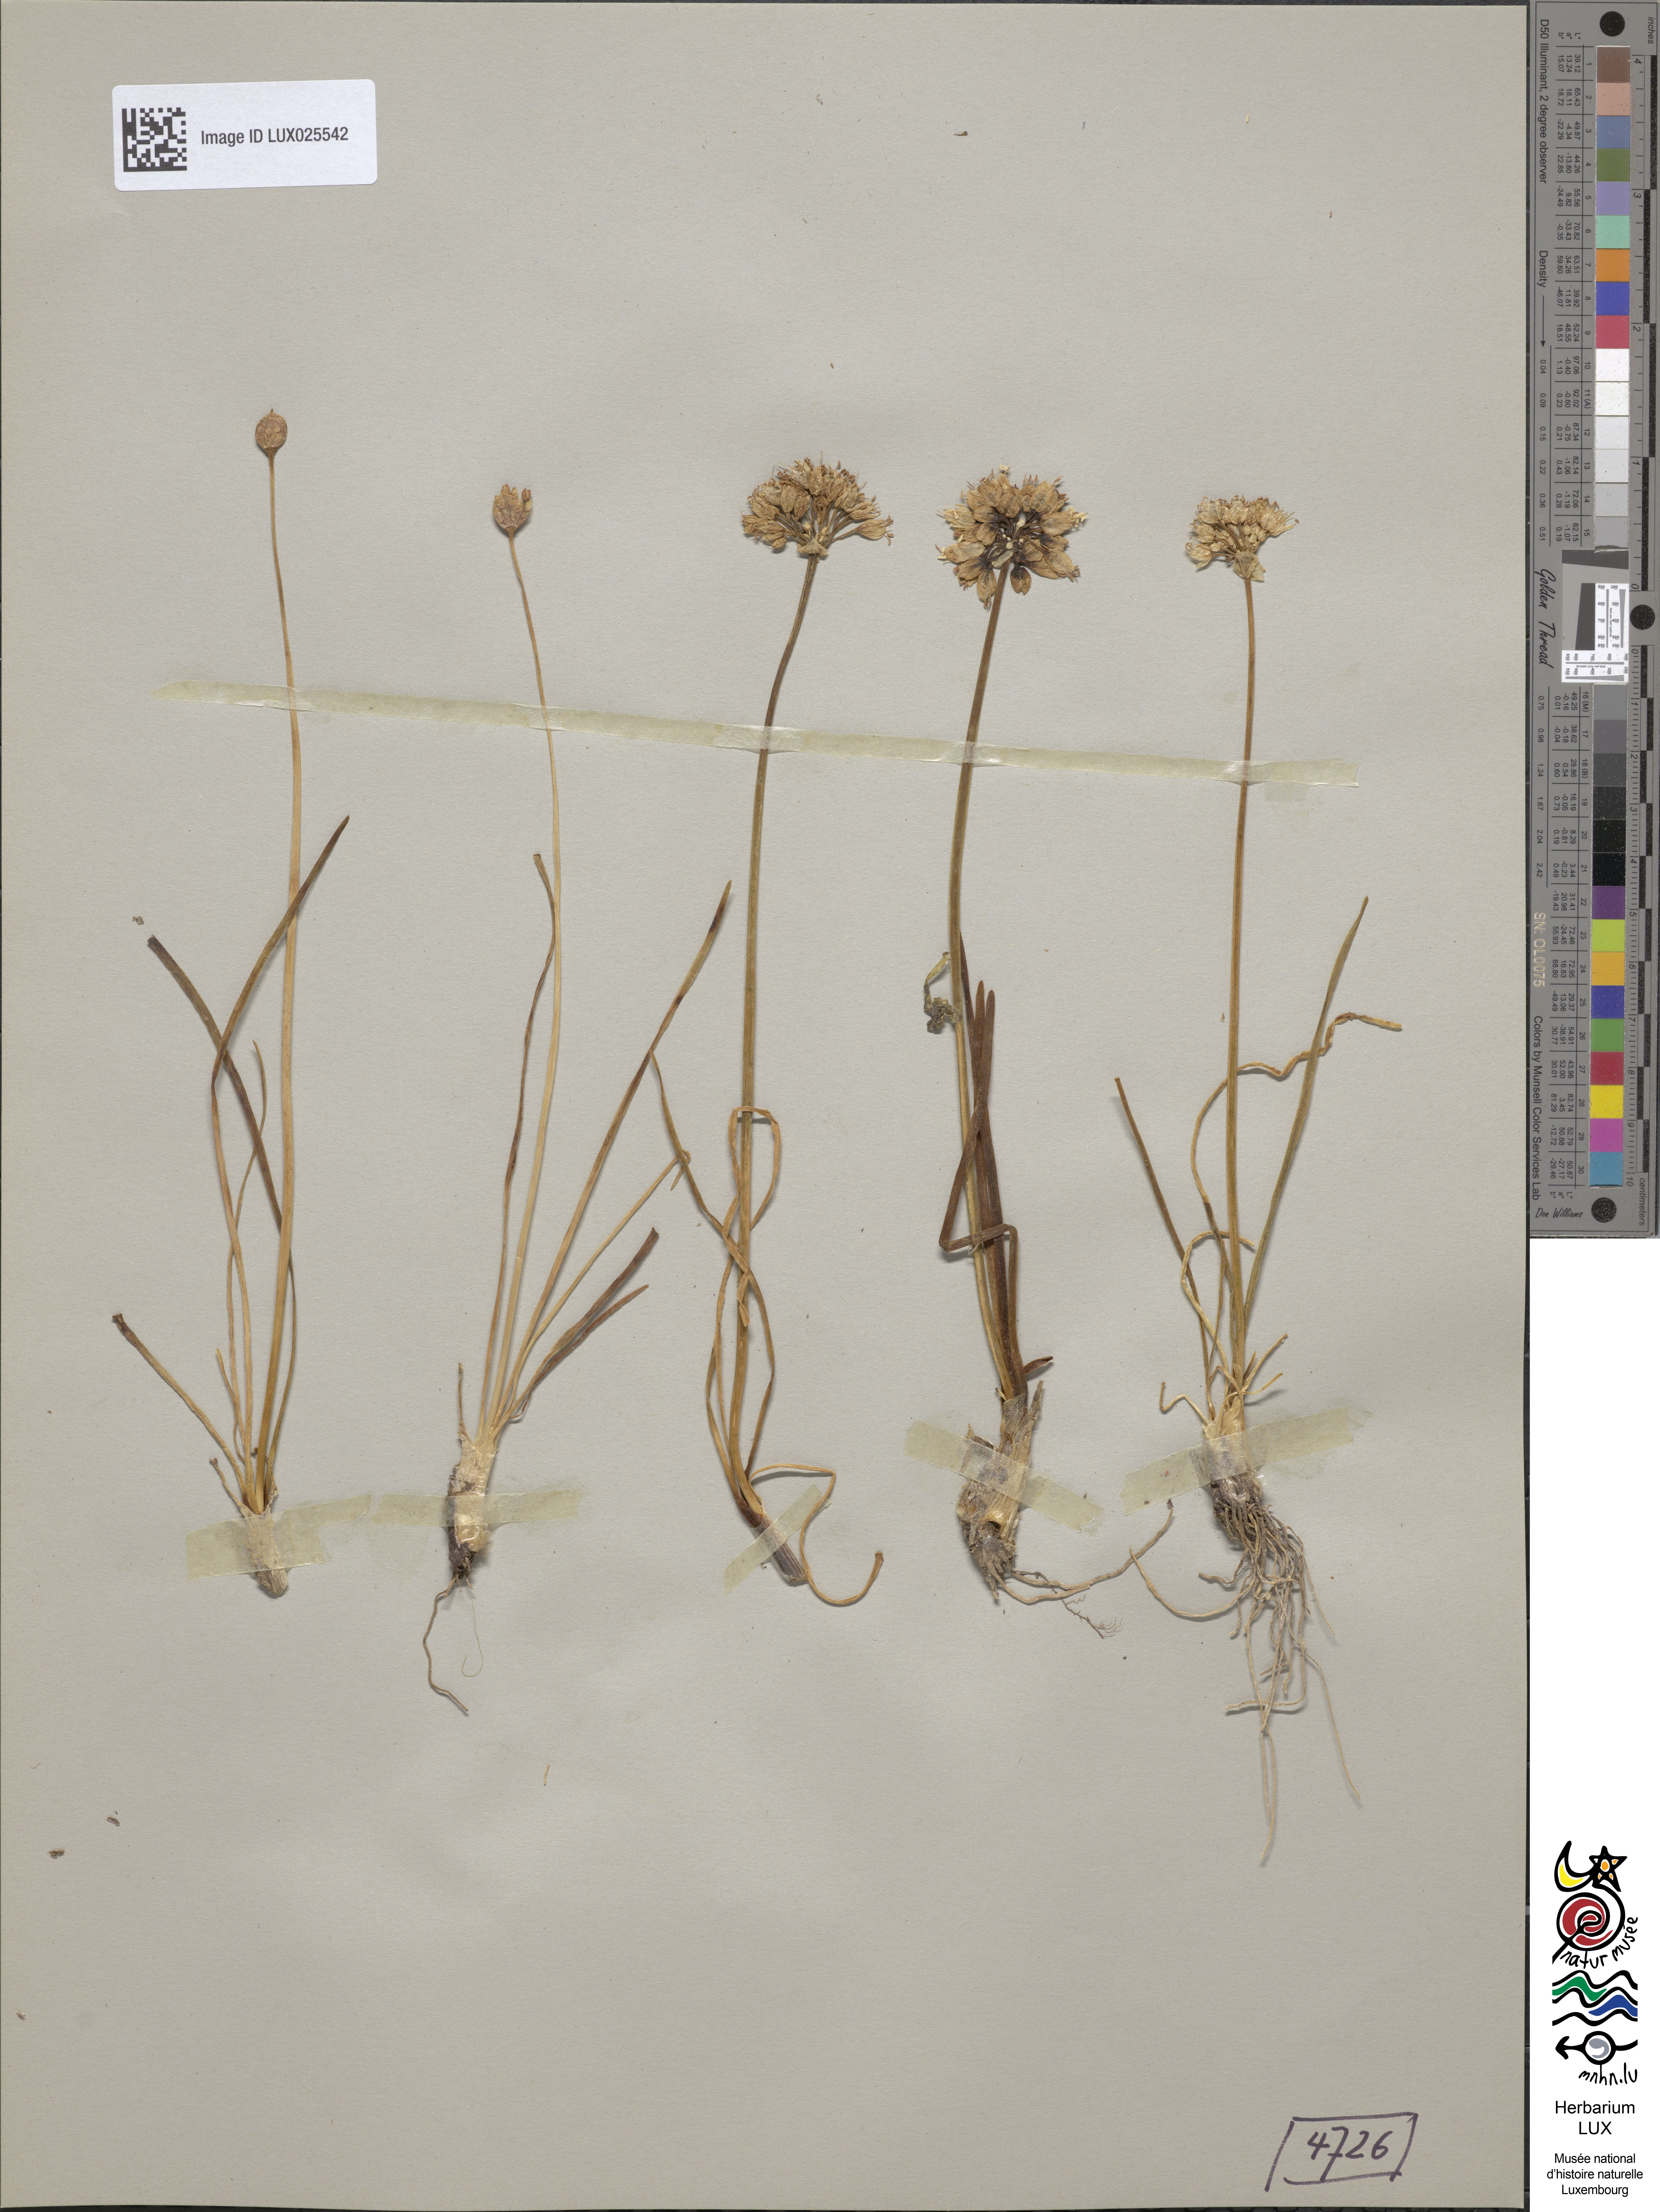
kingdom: Plantae
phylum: Tracheophyta
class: Liliopsida
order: Asparagales
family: Amaryllidaceae
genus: Allium
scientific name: Allium lusitanicum
